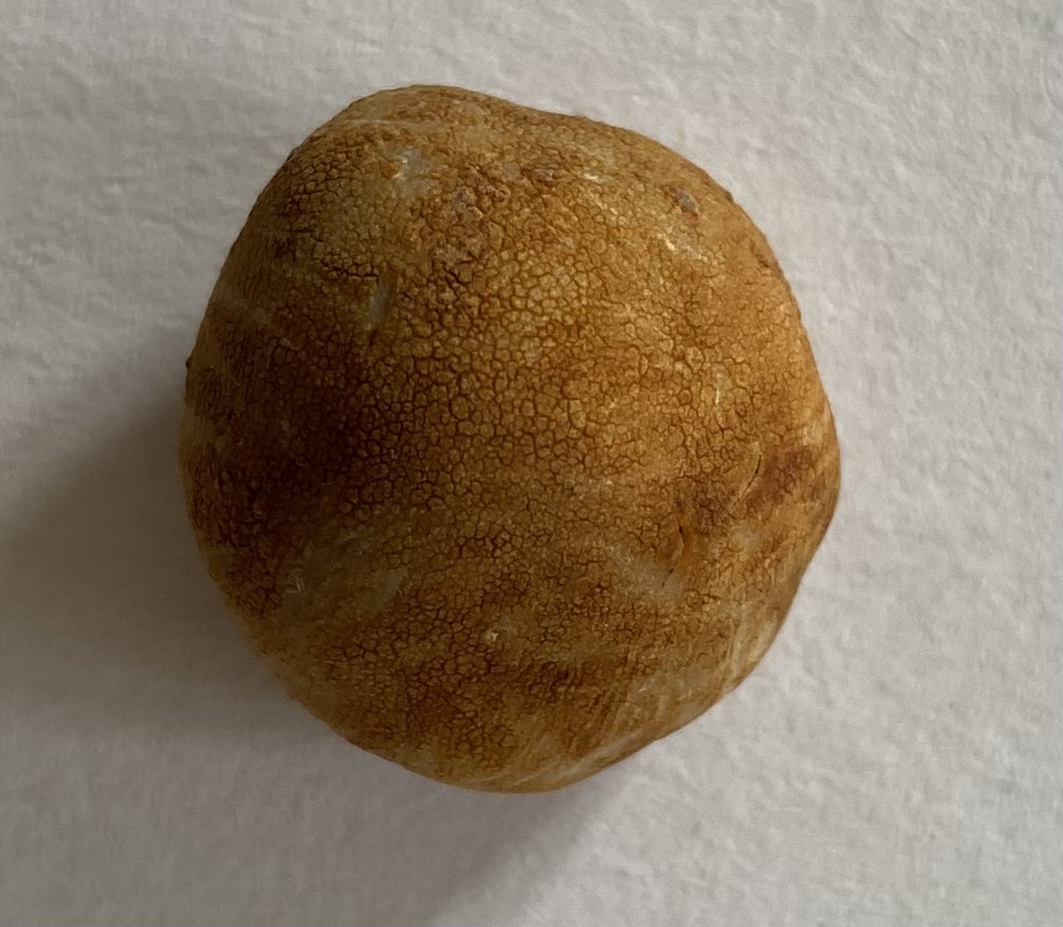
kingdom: Fungi
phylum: Ascomycota
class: Pezizomycetes
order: Pezizales
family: Tuberaceae
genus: Tuber
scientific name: Tuber excavatum
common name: udhulet trøffel
